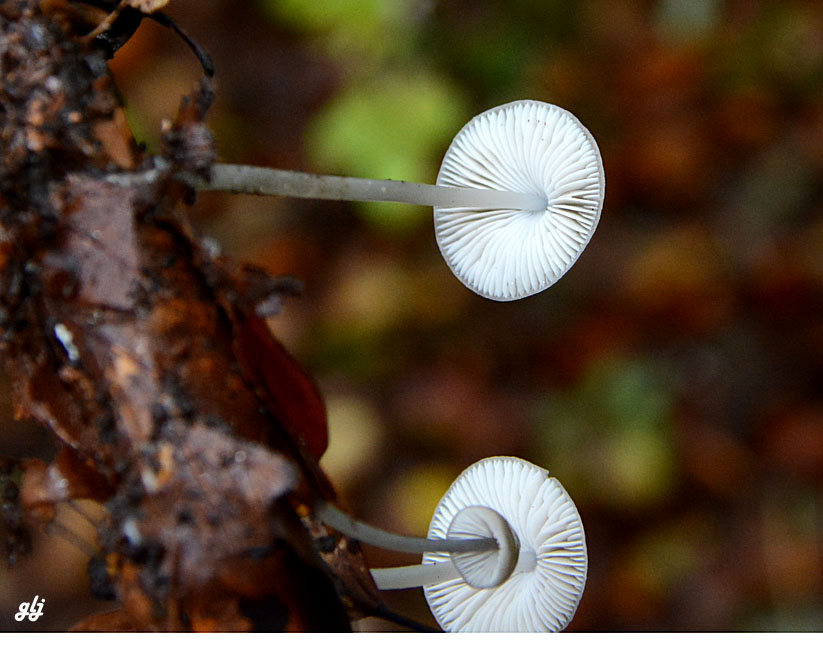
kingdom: Fungi
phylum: Basidiomycota
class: Agaricomycetes
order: Agaricales
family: Mycenaceae
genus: Mycena
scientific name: Mycena vitilis
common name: blankstokket huesvamp
